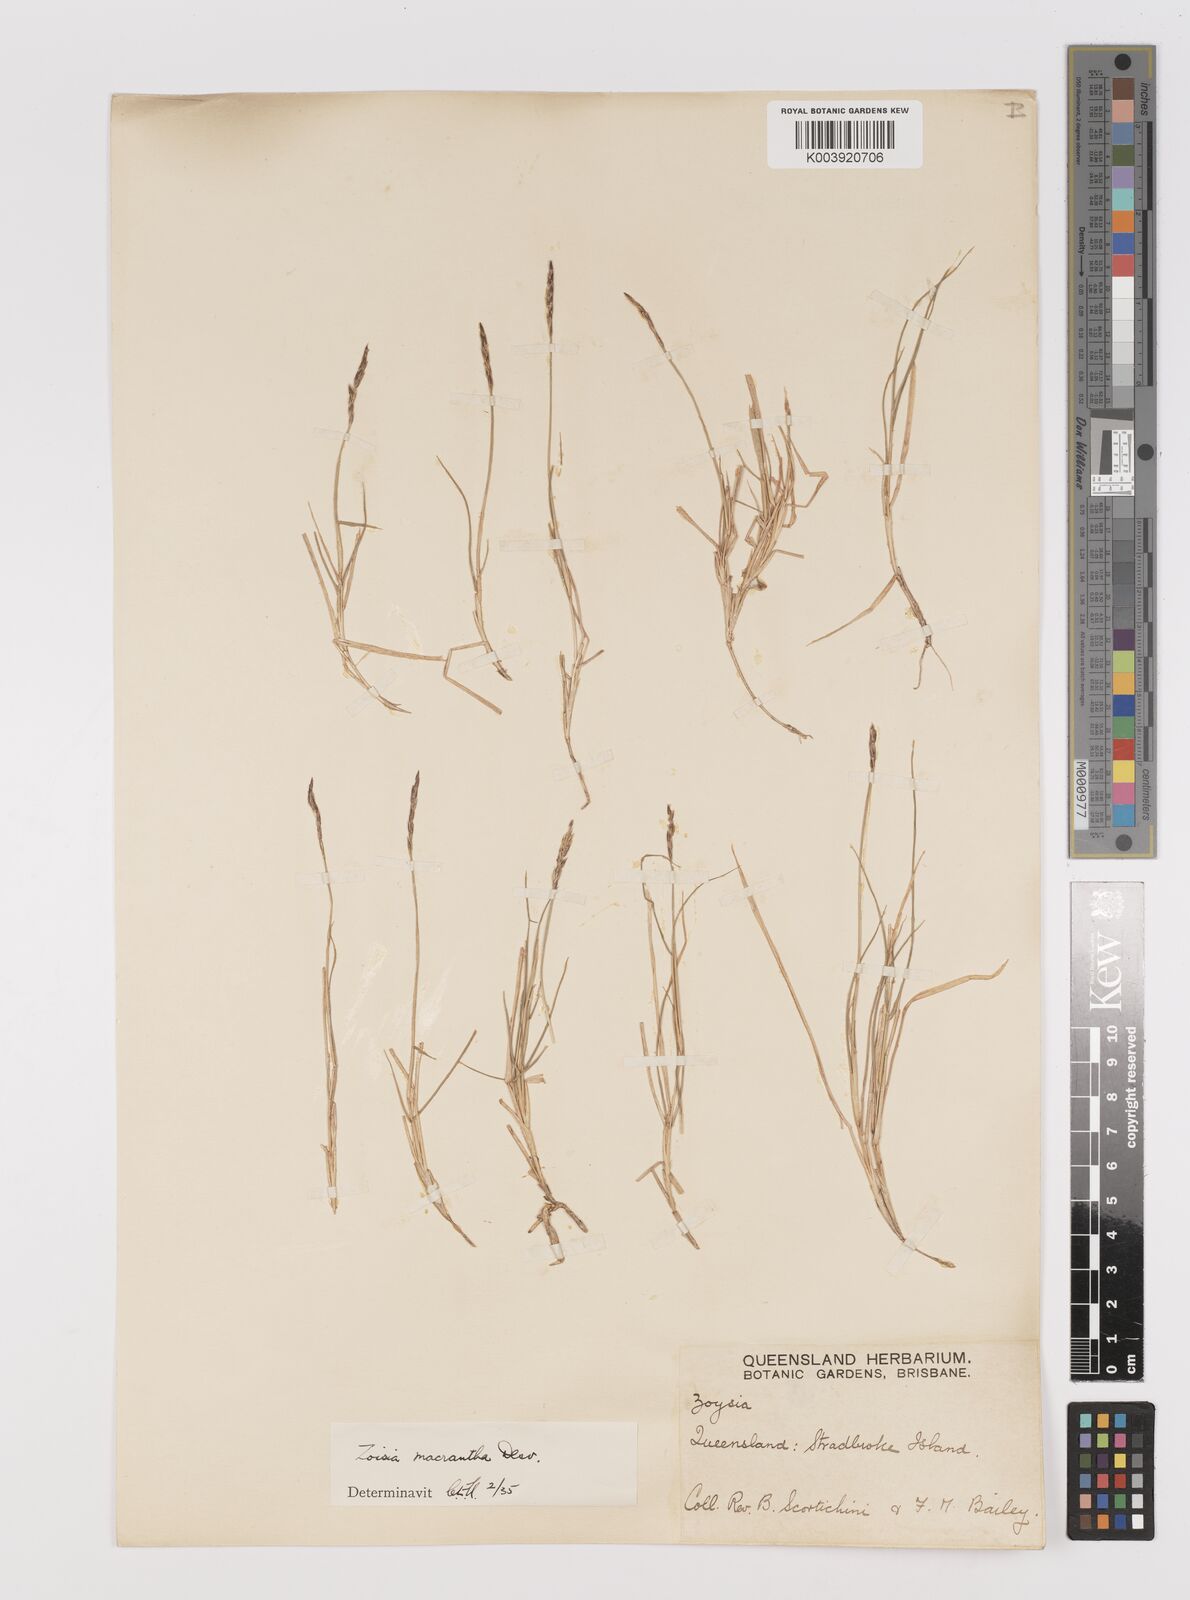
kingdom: Plantae
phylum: Tracheophyta
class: Liliopsida
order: Poales
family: Poaceae
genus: Zoysia
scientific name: Zoysia macrantha
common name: Korean lawn grass
